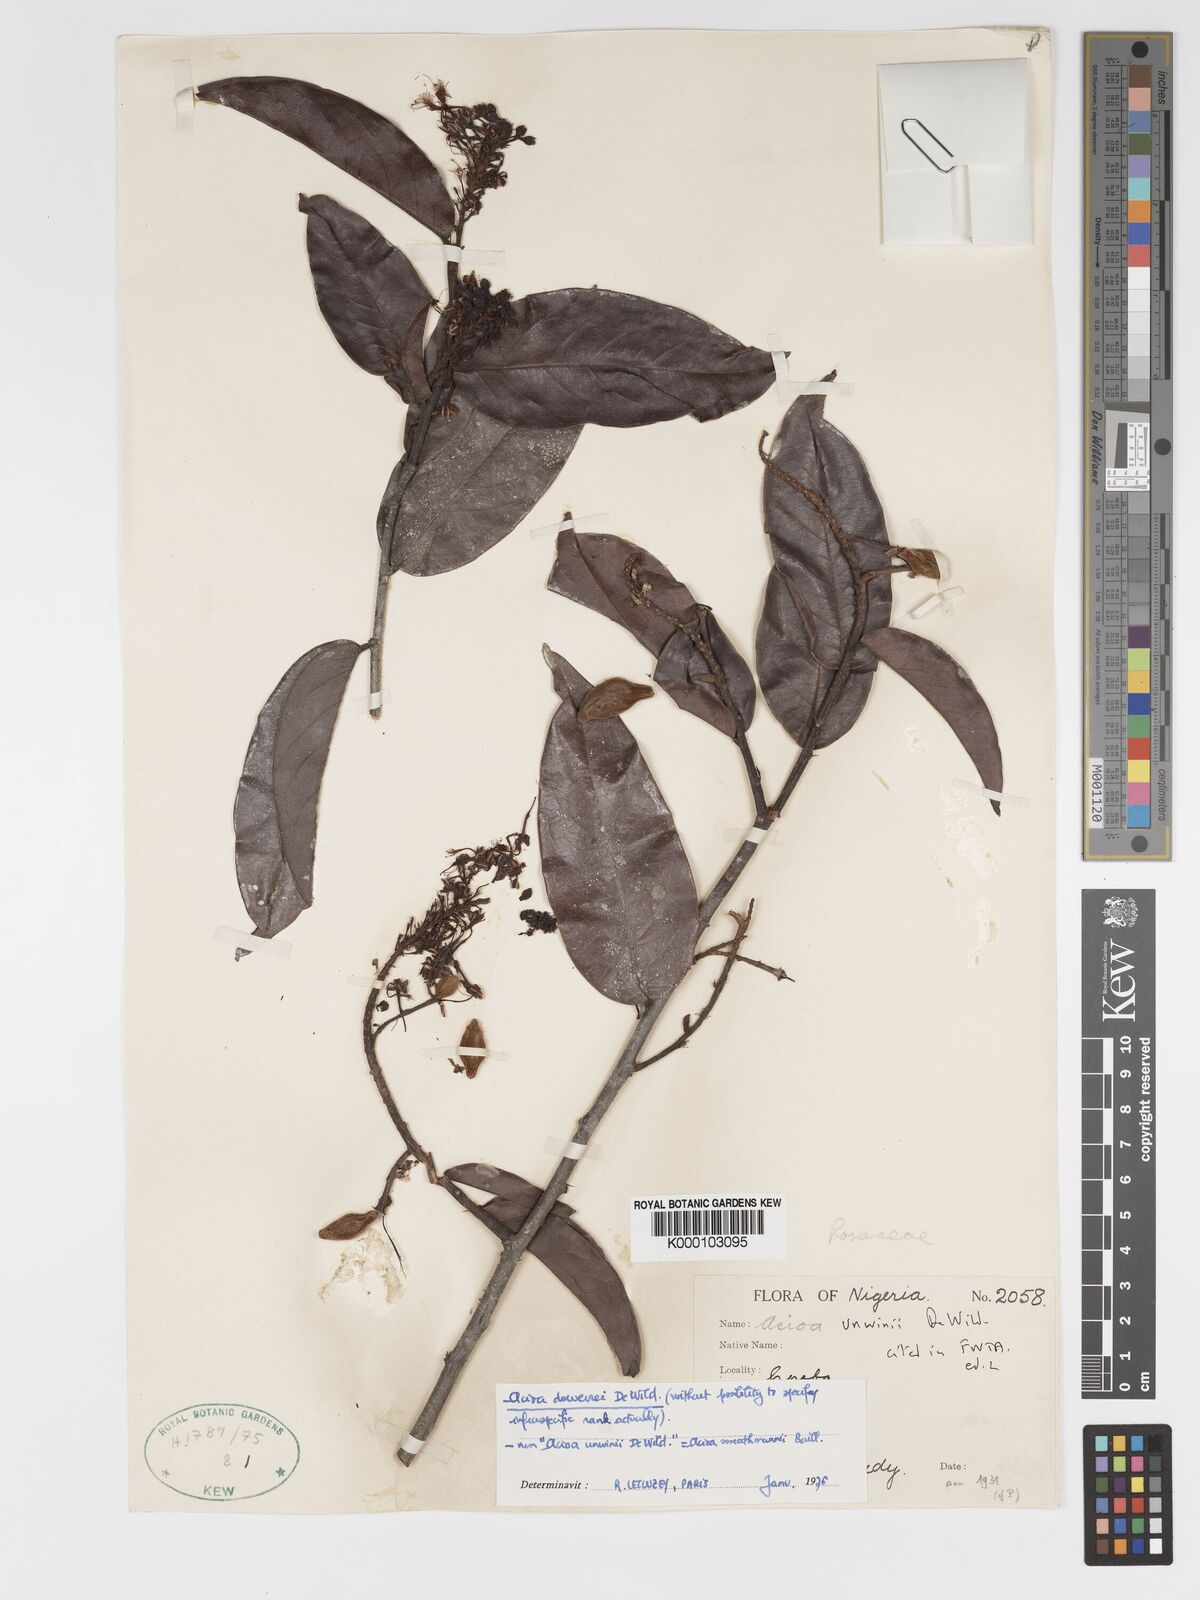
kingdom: Plantae
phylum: Tracheophyta
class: Magnoliopsida
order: Malpighiales
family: Chrysobalanaceae
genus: Dactyladenia
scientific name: Dactyladenia dewevrei
